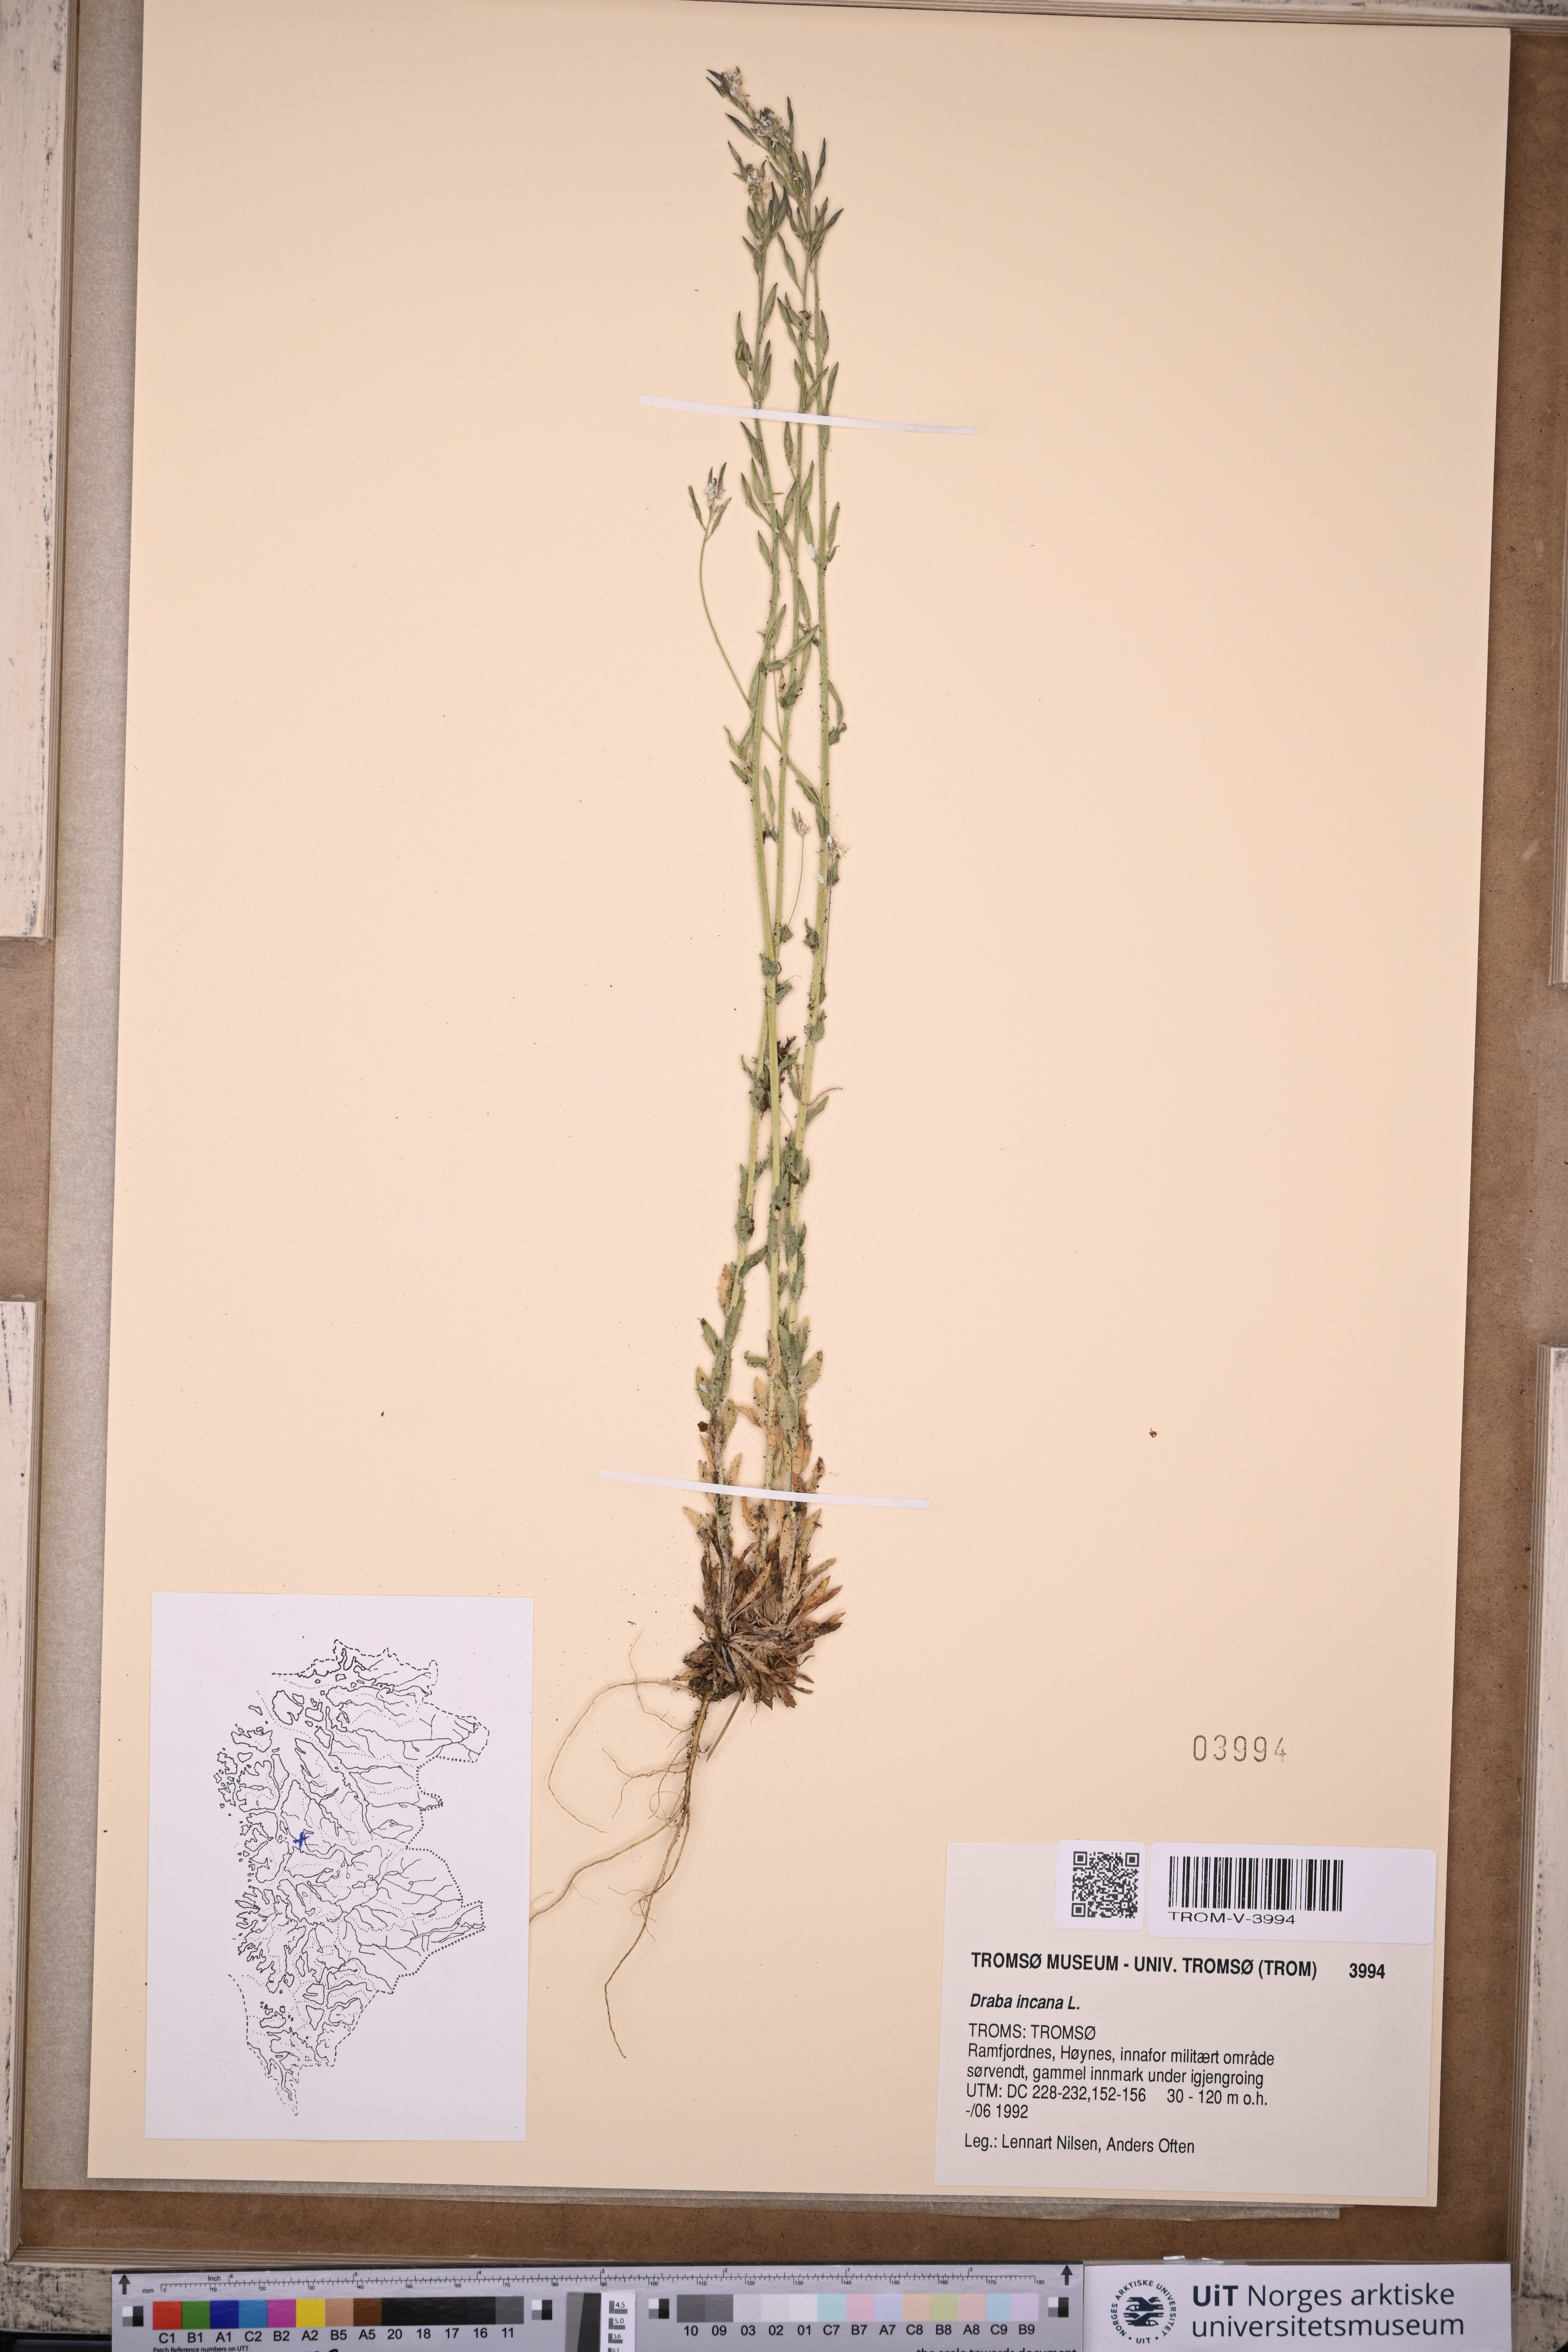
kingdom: Plantae
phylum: Tracheophyta
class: Magnoliopsida
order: Brassicales
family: Brassicaceae
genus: Draba
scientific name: Draba incana
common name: Hoary whitlow-grass
